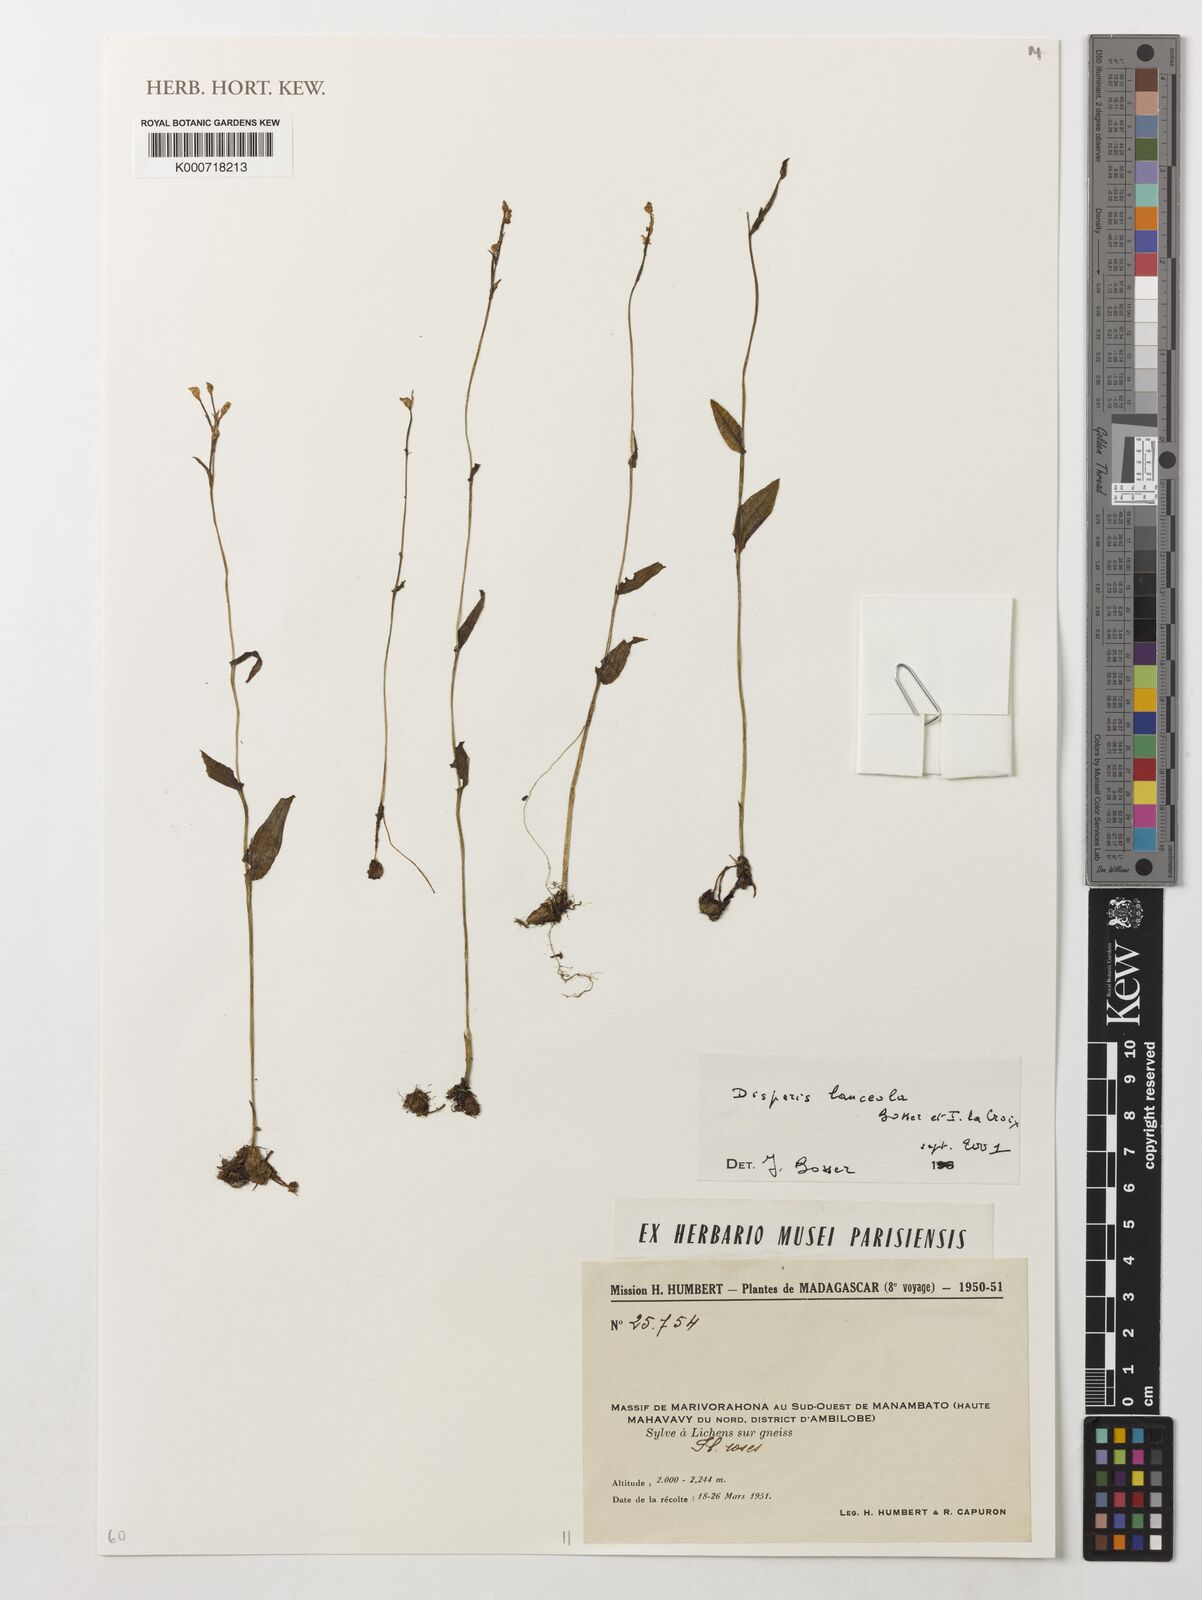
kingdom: Plantae
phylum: Tracheophyta
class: Liliopsida
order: Asparagales
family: Orchidaceae
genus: Disperis
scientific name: Disperis lanceolata
